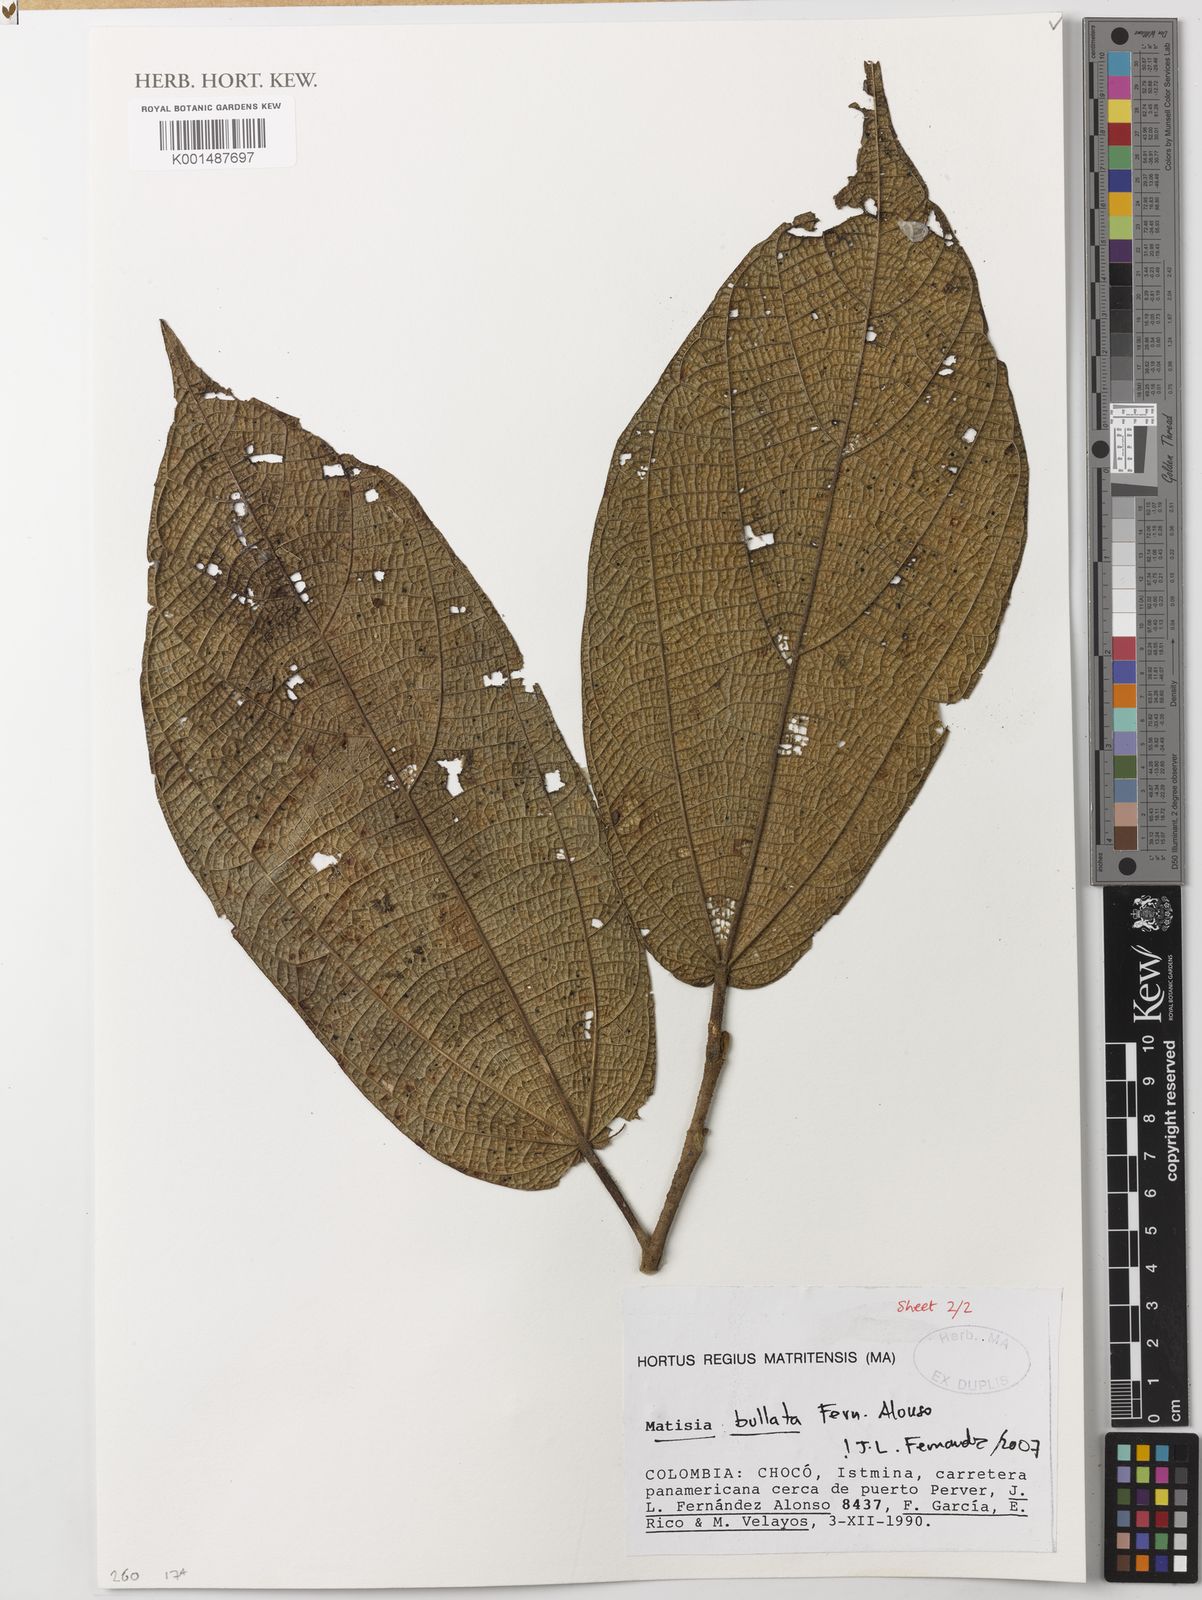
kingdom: Plantae
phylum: Tracheophyta
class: Magnoliopsida
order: Malvales
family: Malvaceae
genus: Matisia
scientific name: Matisia bullata
